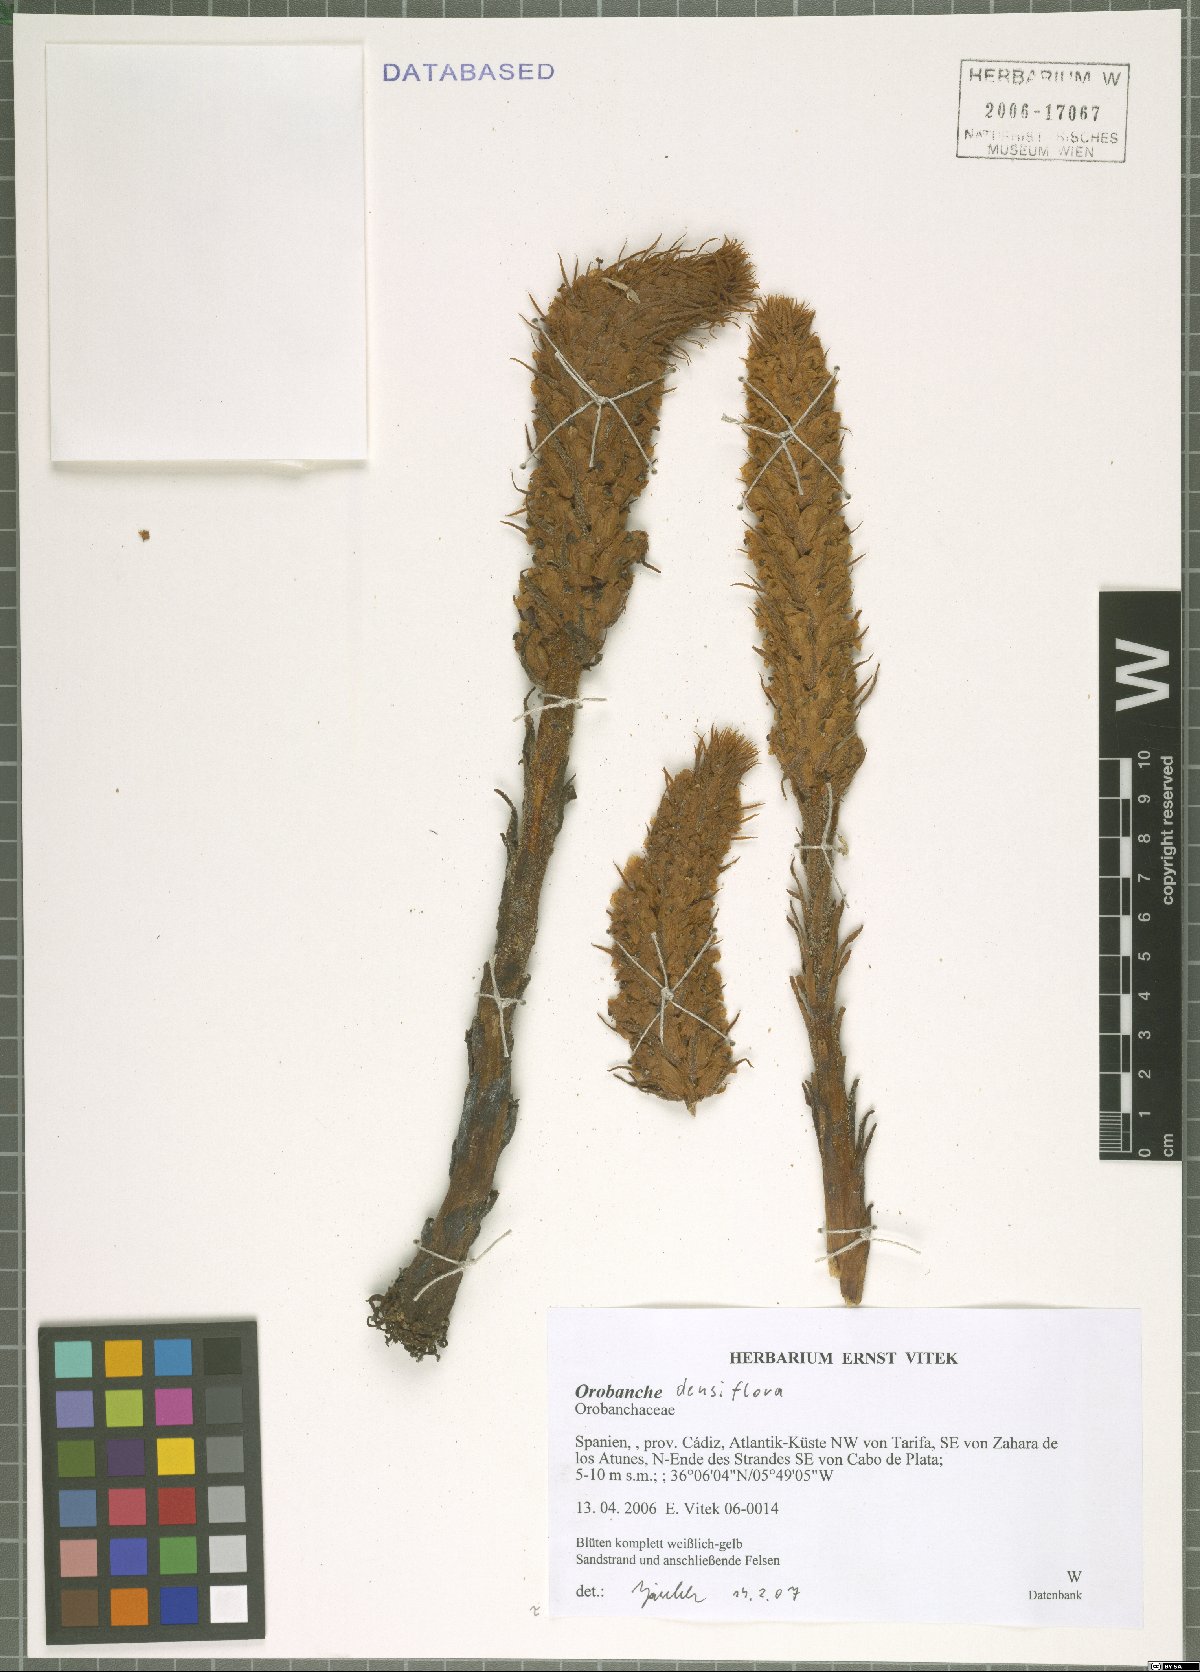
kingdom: Plantae
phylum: Tracheophyta
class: Magnoliopsida
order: Lamiales
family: Orobanchaceae
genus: Orobanche
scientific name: Orobanche densiflora
